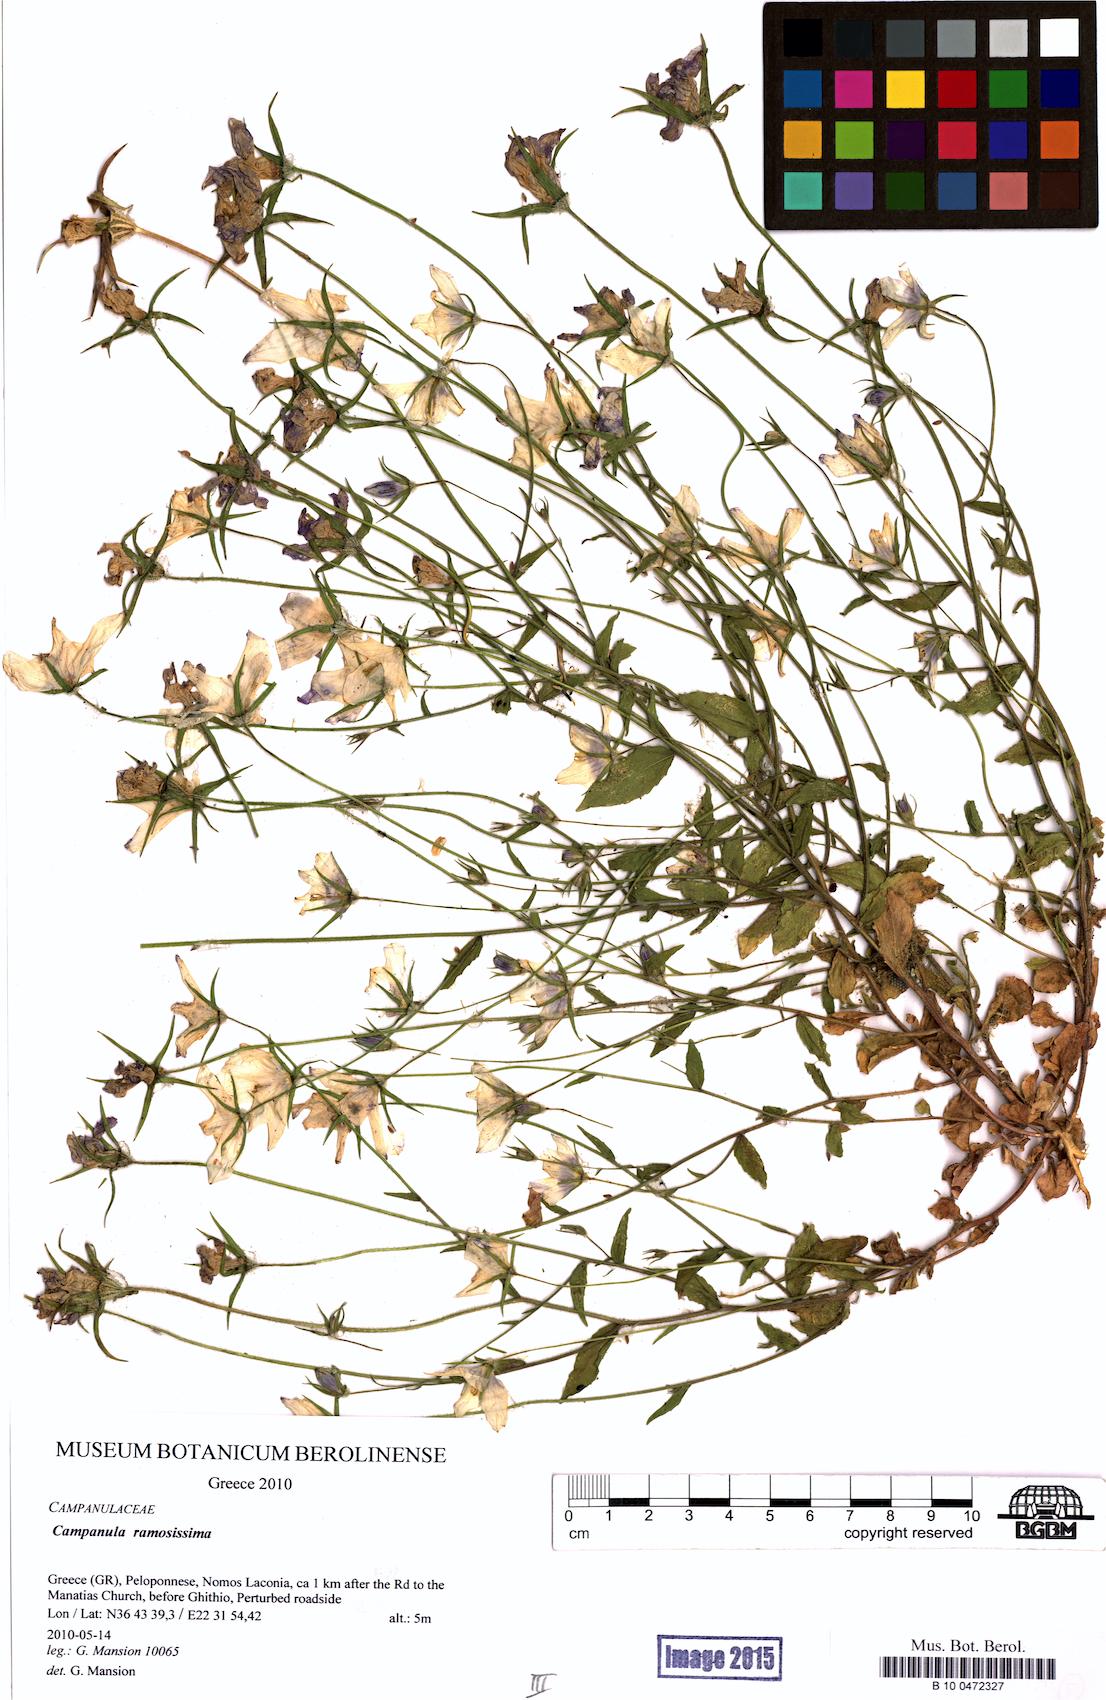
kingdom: Plantae
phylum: Tracheophyta
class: Magnoliopsida
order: Asterales
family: Campanulaceae
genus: Campanula
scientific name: Campanula ramosissima
